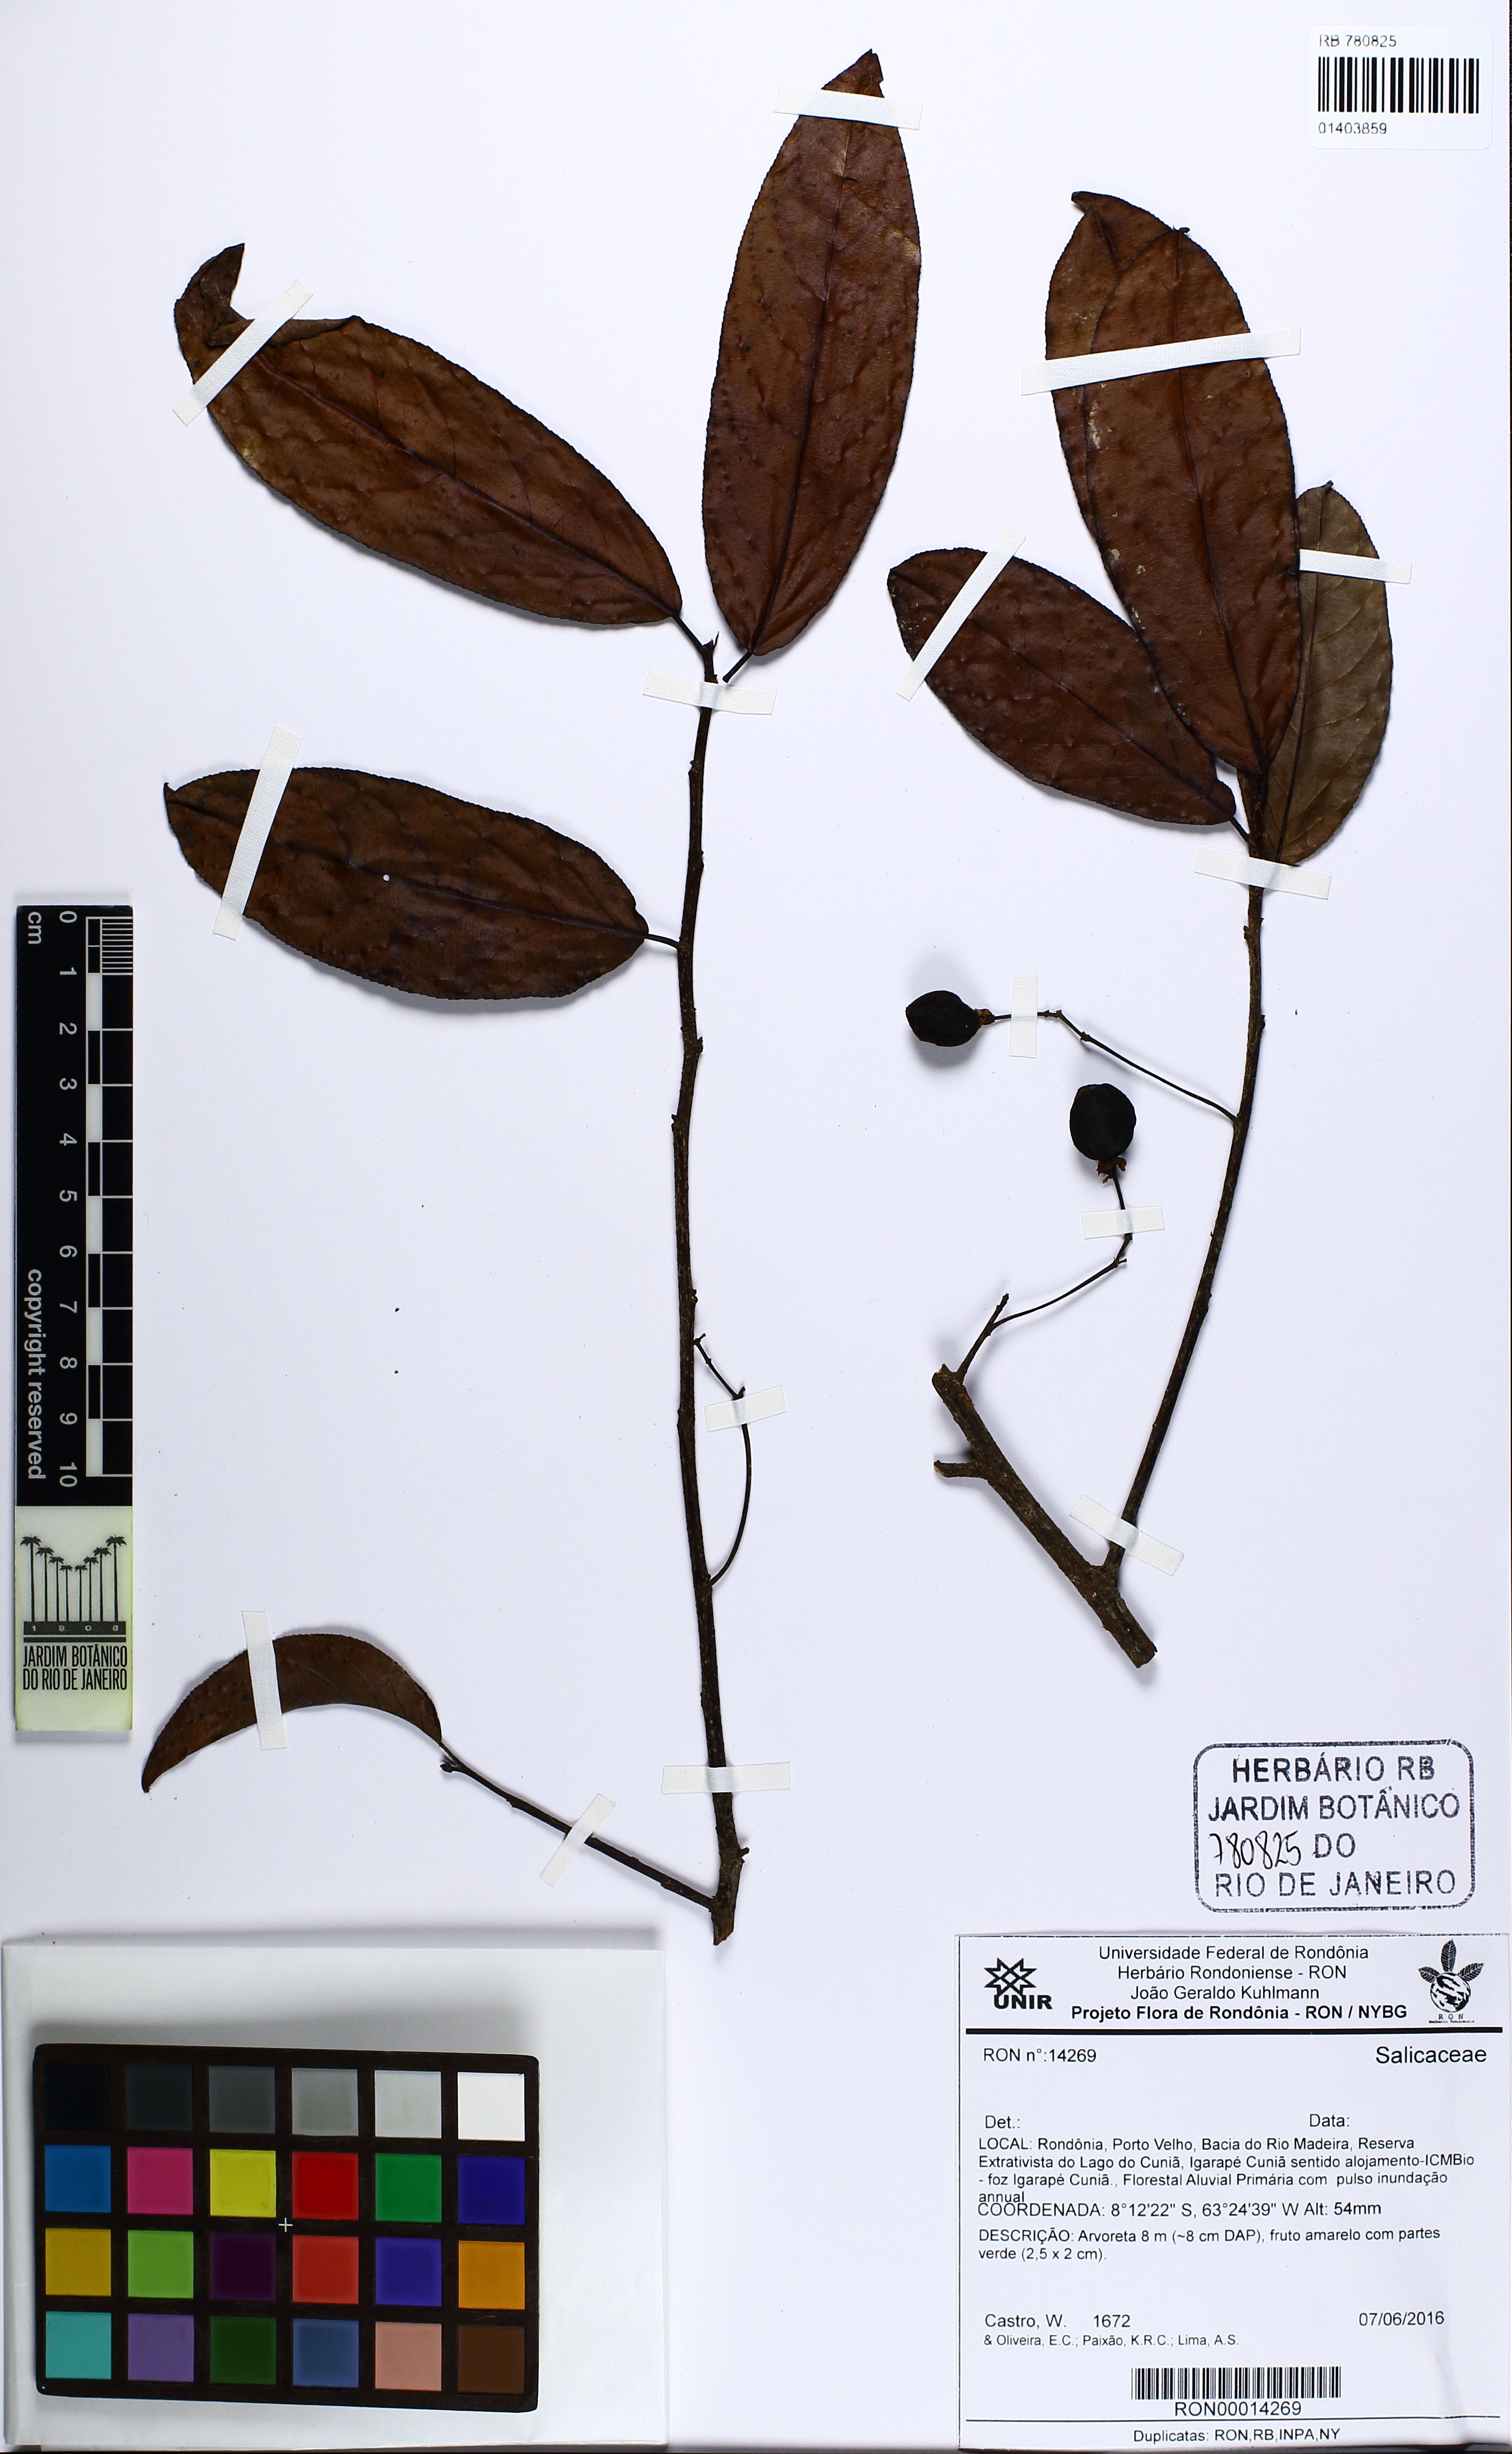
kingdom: Plantae
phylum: Tracheophyta
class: Magnoliopsida
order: Malpighiales
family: Salicaceae
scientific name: Salicaceae
